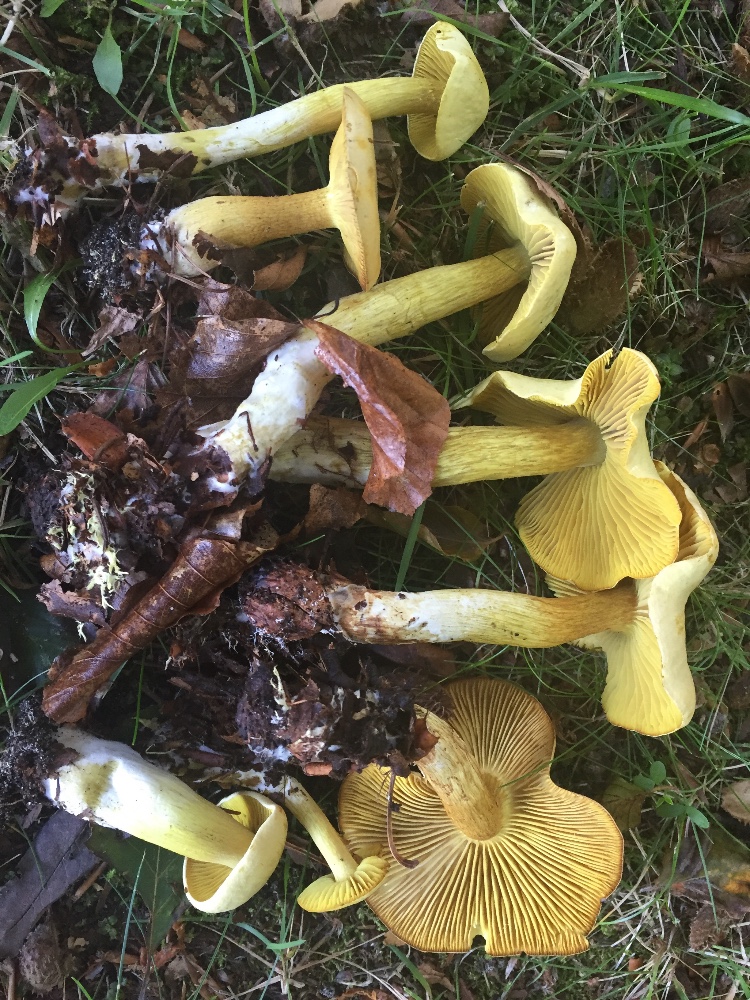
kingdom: Fungi
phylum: Basidiomycota
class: Agaricomycetes
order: Agaricales
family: Tricholomataceae
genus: Tricholoma
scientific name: Tricholoma sulphureum
